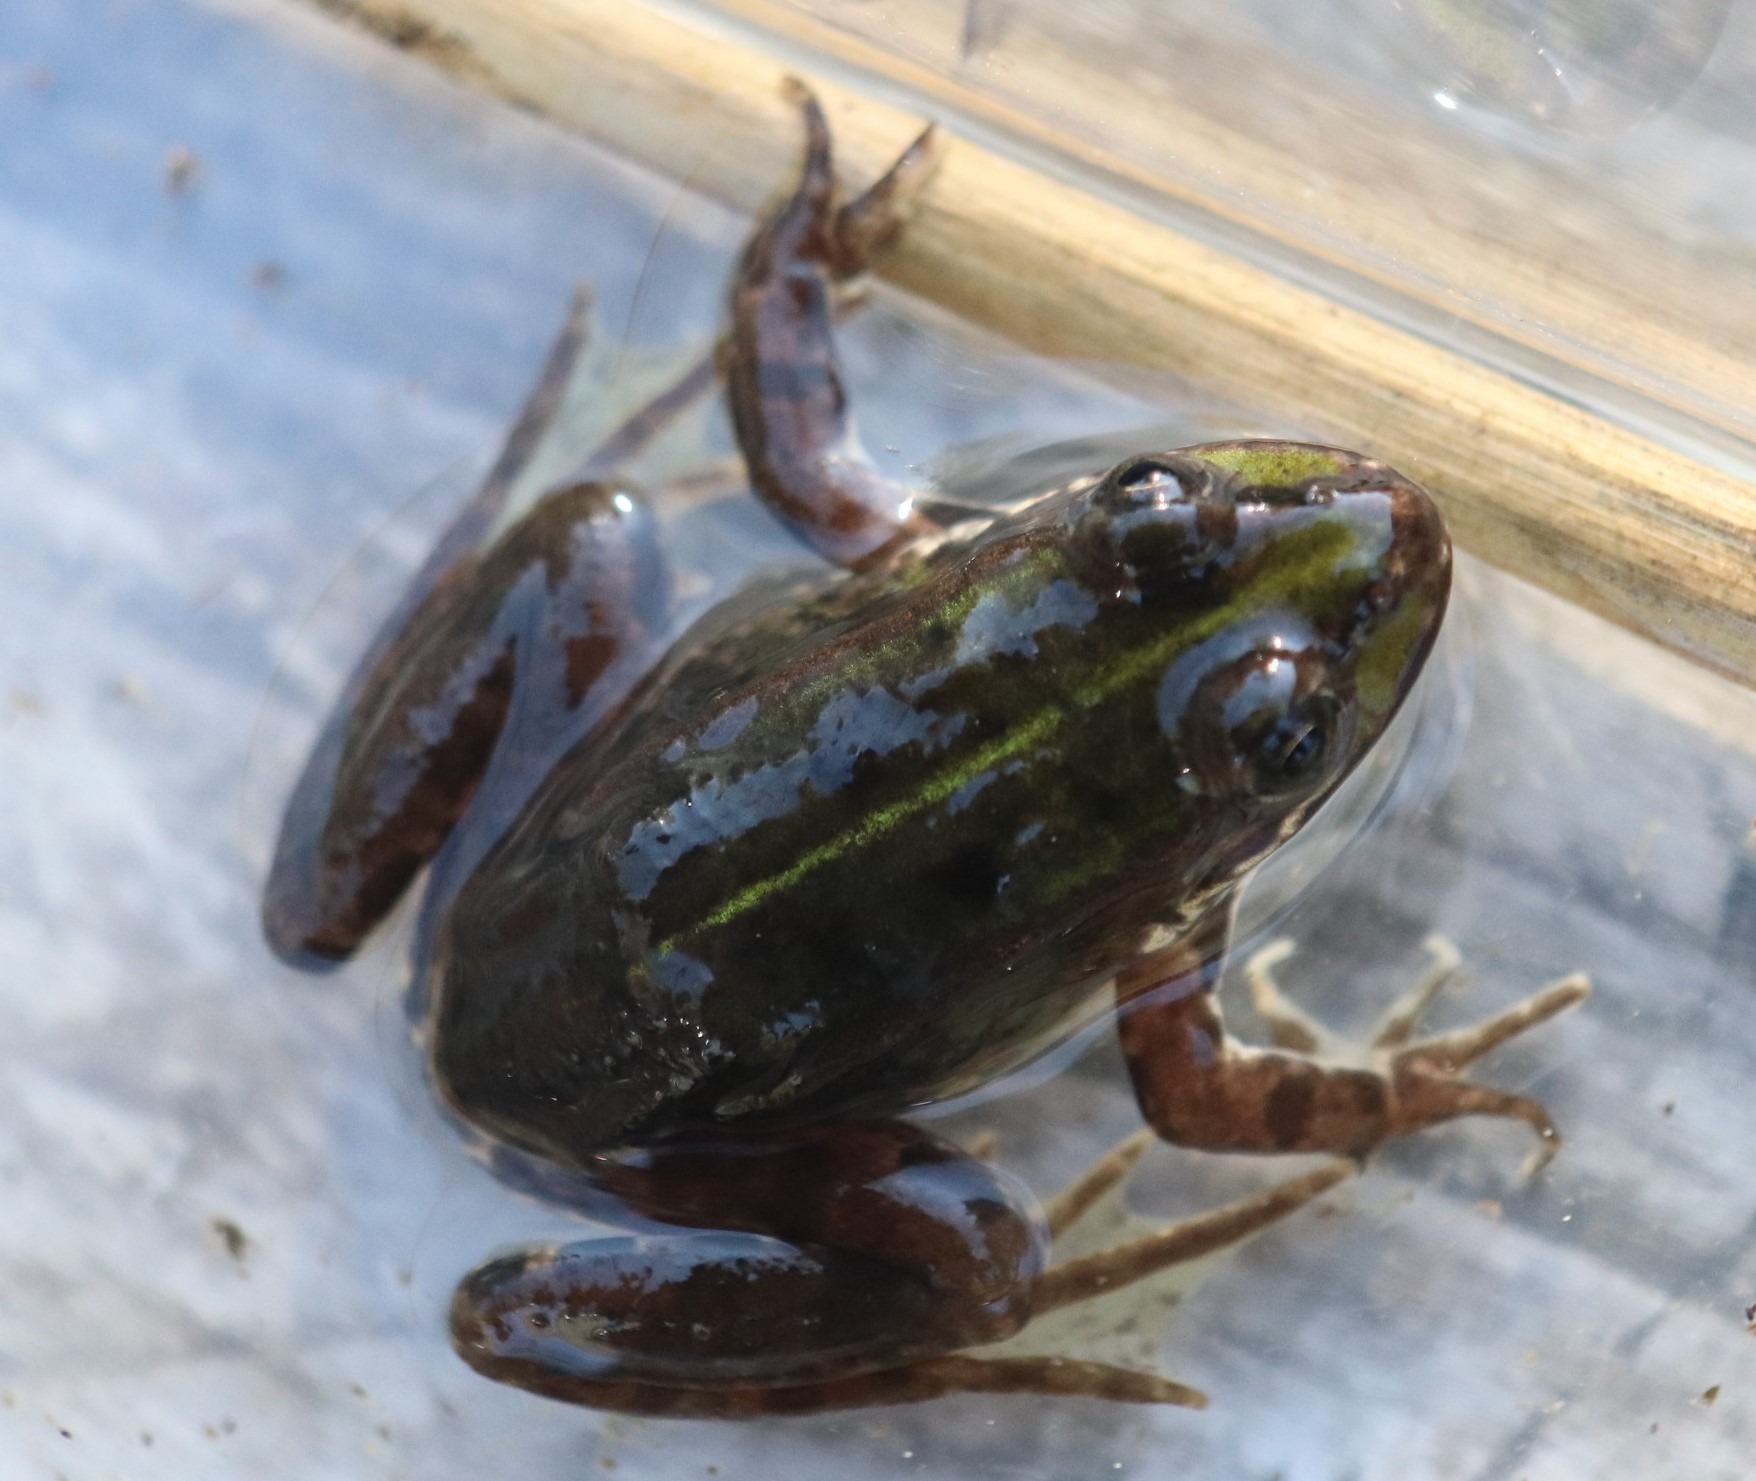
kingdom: Animalia
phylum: Chordata
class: Amphibia
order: Anura
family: Ranidae
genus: Pelophylax
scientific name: Pelophylax lessonae
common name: Grøn frø
